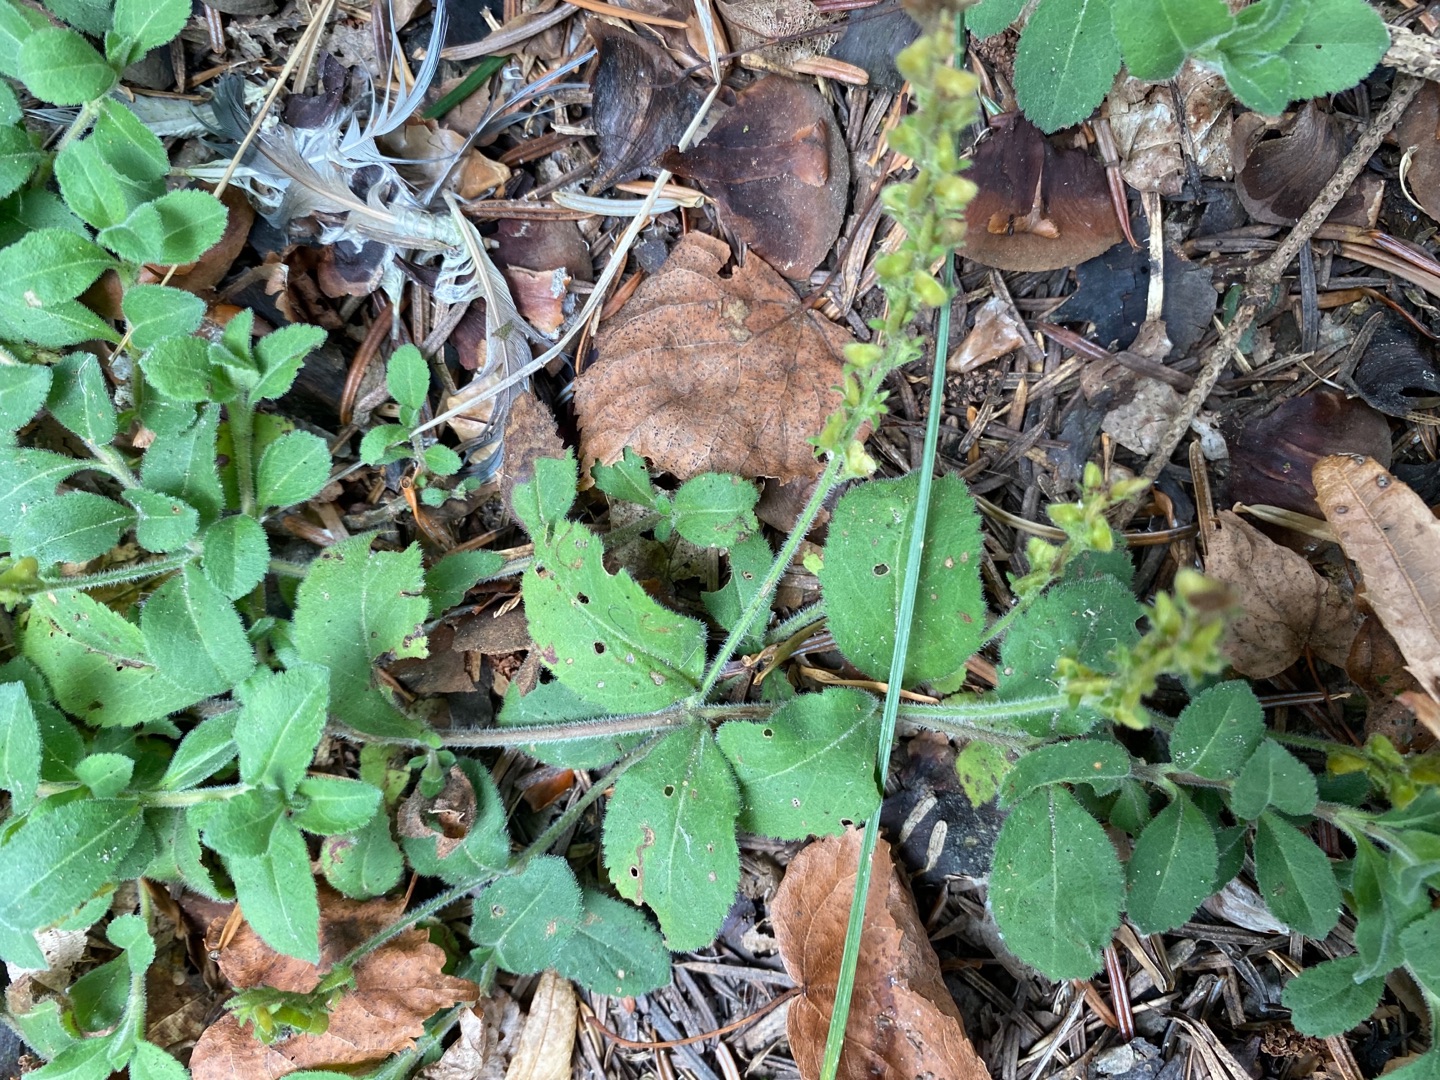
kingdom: Plantae
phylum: Tracheophyta
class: Magnoliopsida
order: Lamiales
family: Plantaginaceae
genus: Veronica
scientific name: Veronica officinalis
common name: Læge-ærenpris
